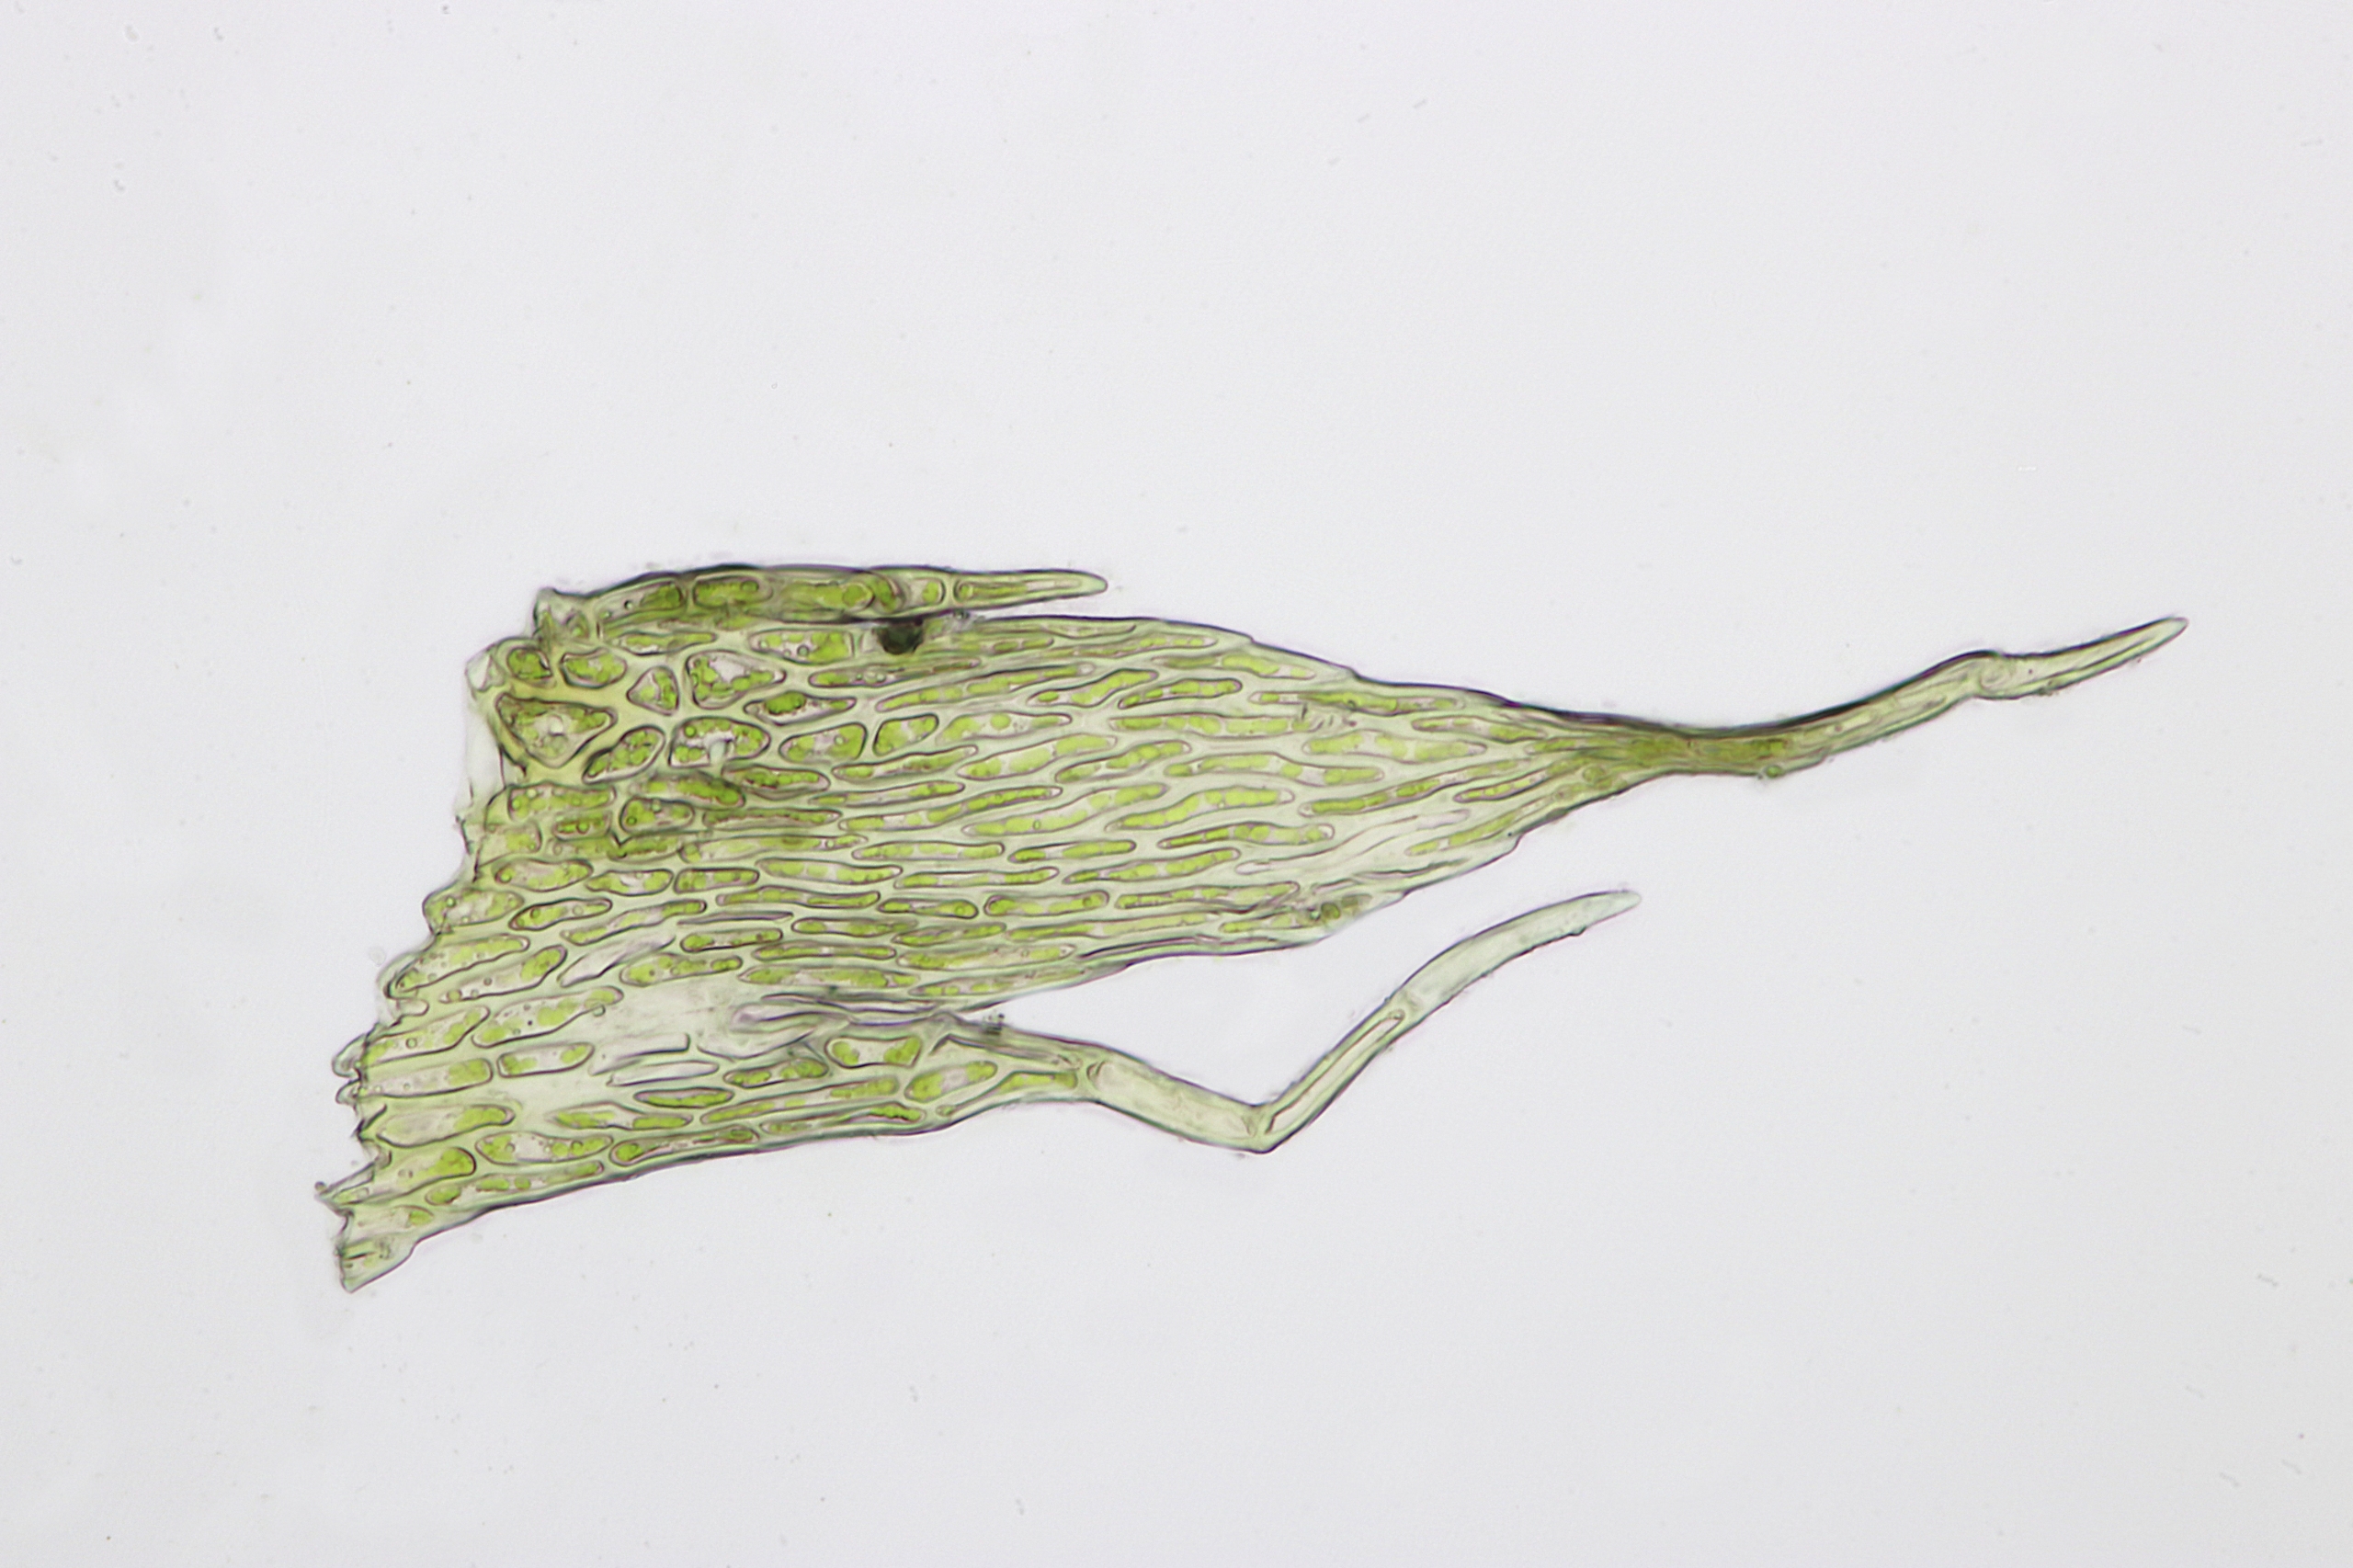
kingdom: Plantae
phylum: Bryophyta
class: Bryopsida
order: Hypnales
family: Callicladiaceae
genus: Callicladium
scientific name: Callicladium imponens
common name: Sort cypresmos
